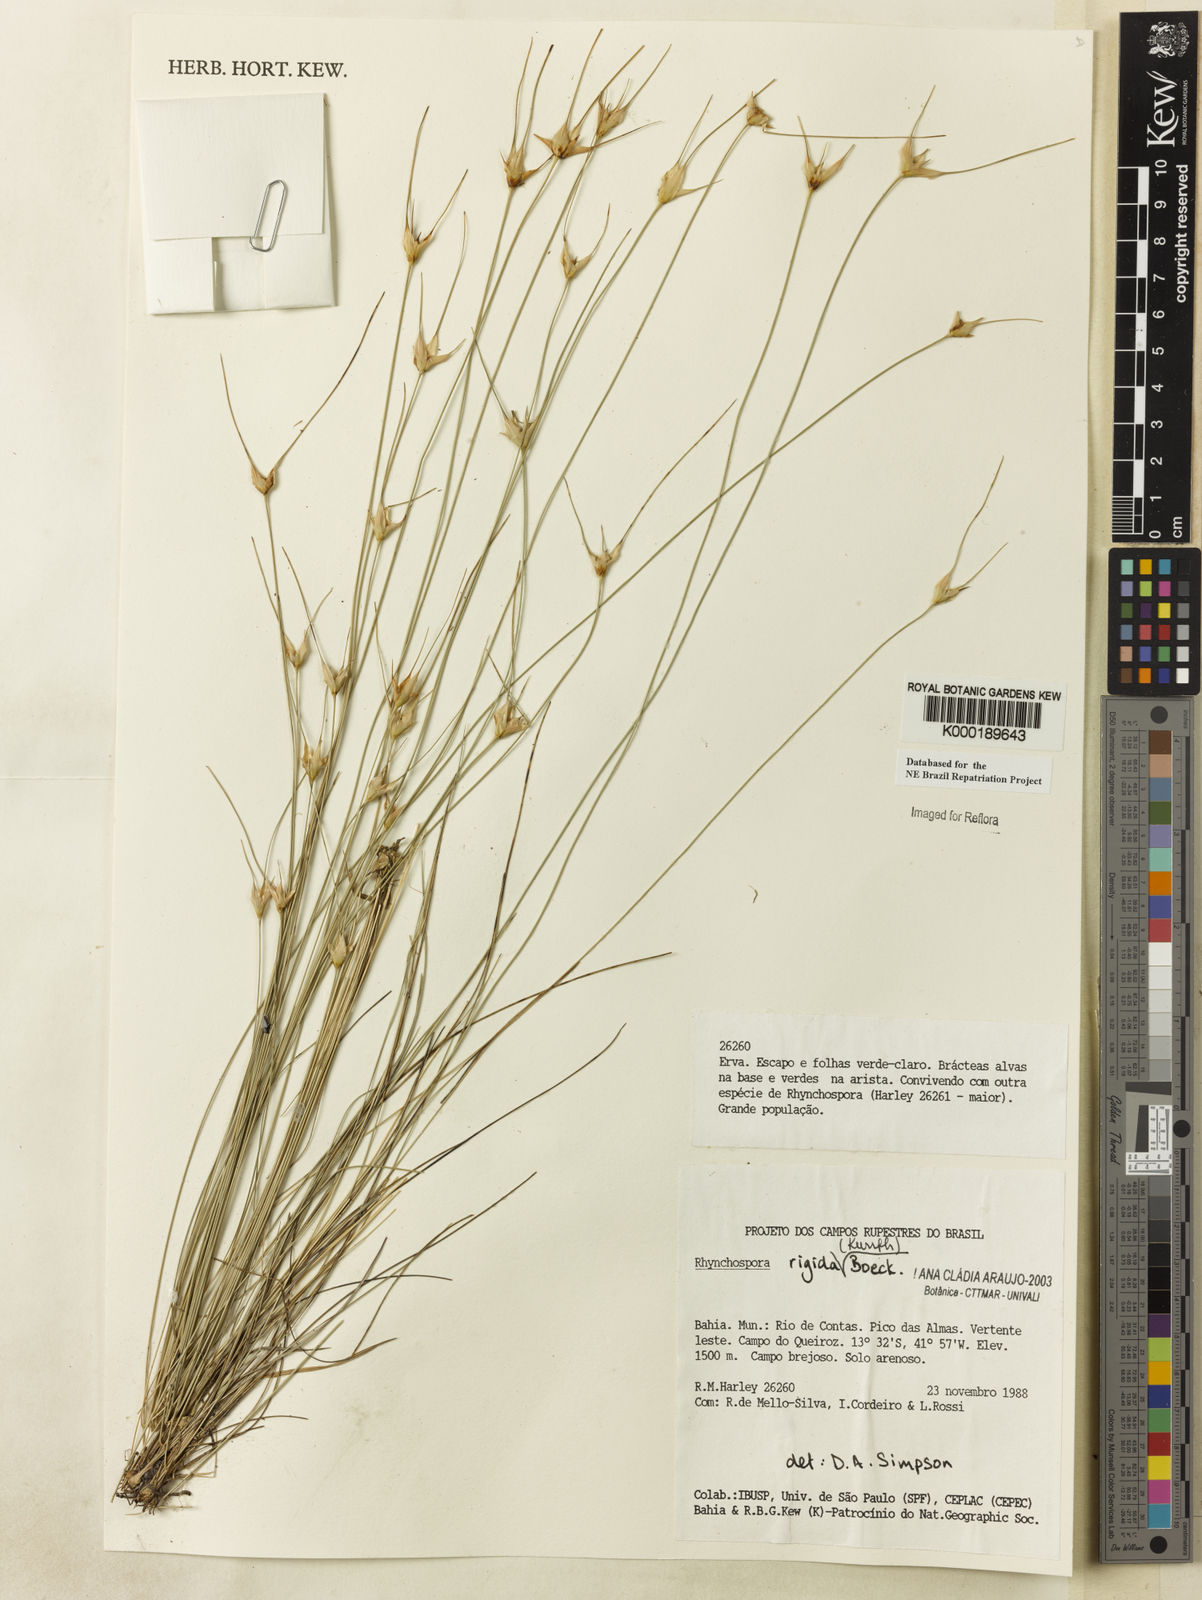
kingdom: Plantae
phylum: Tracheophyta
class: Liliopsida
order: Poales
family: Cyperaceae
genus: Rhynchospora
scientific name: Rhynchospora consanguinea
